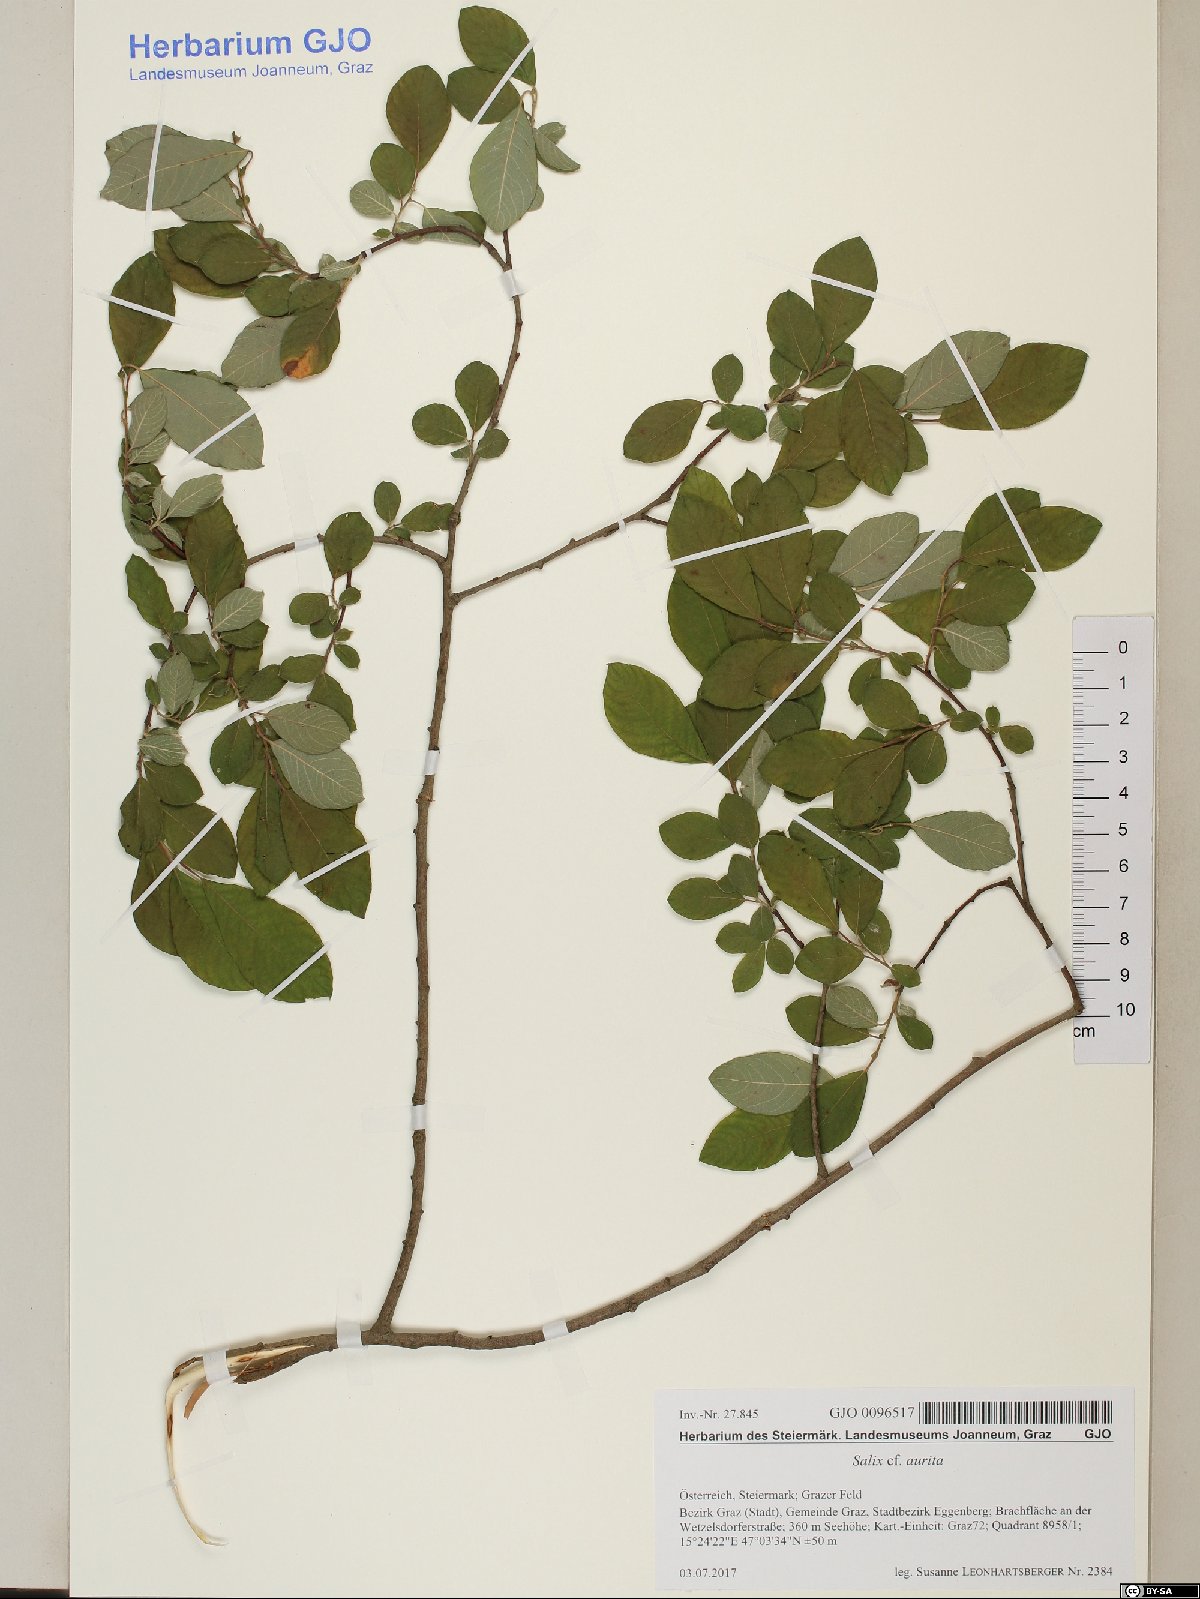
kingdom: Plantae
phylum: Tracheophyta
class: Magnoliopsida
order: Malpighiales
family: Salicaceae
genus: Salix
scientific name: Salix aurita
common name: Eared willow
